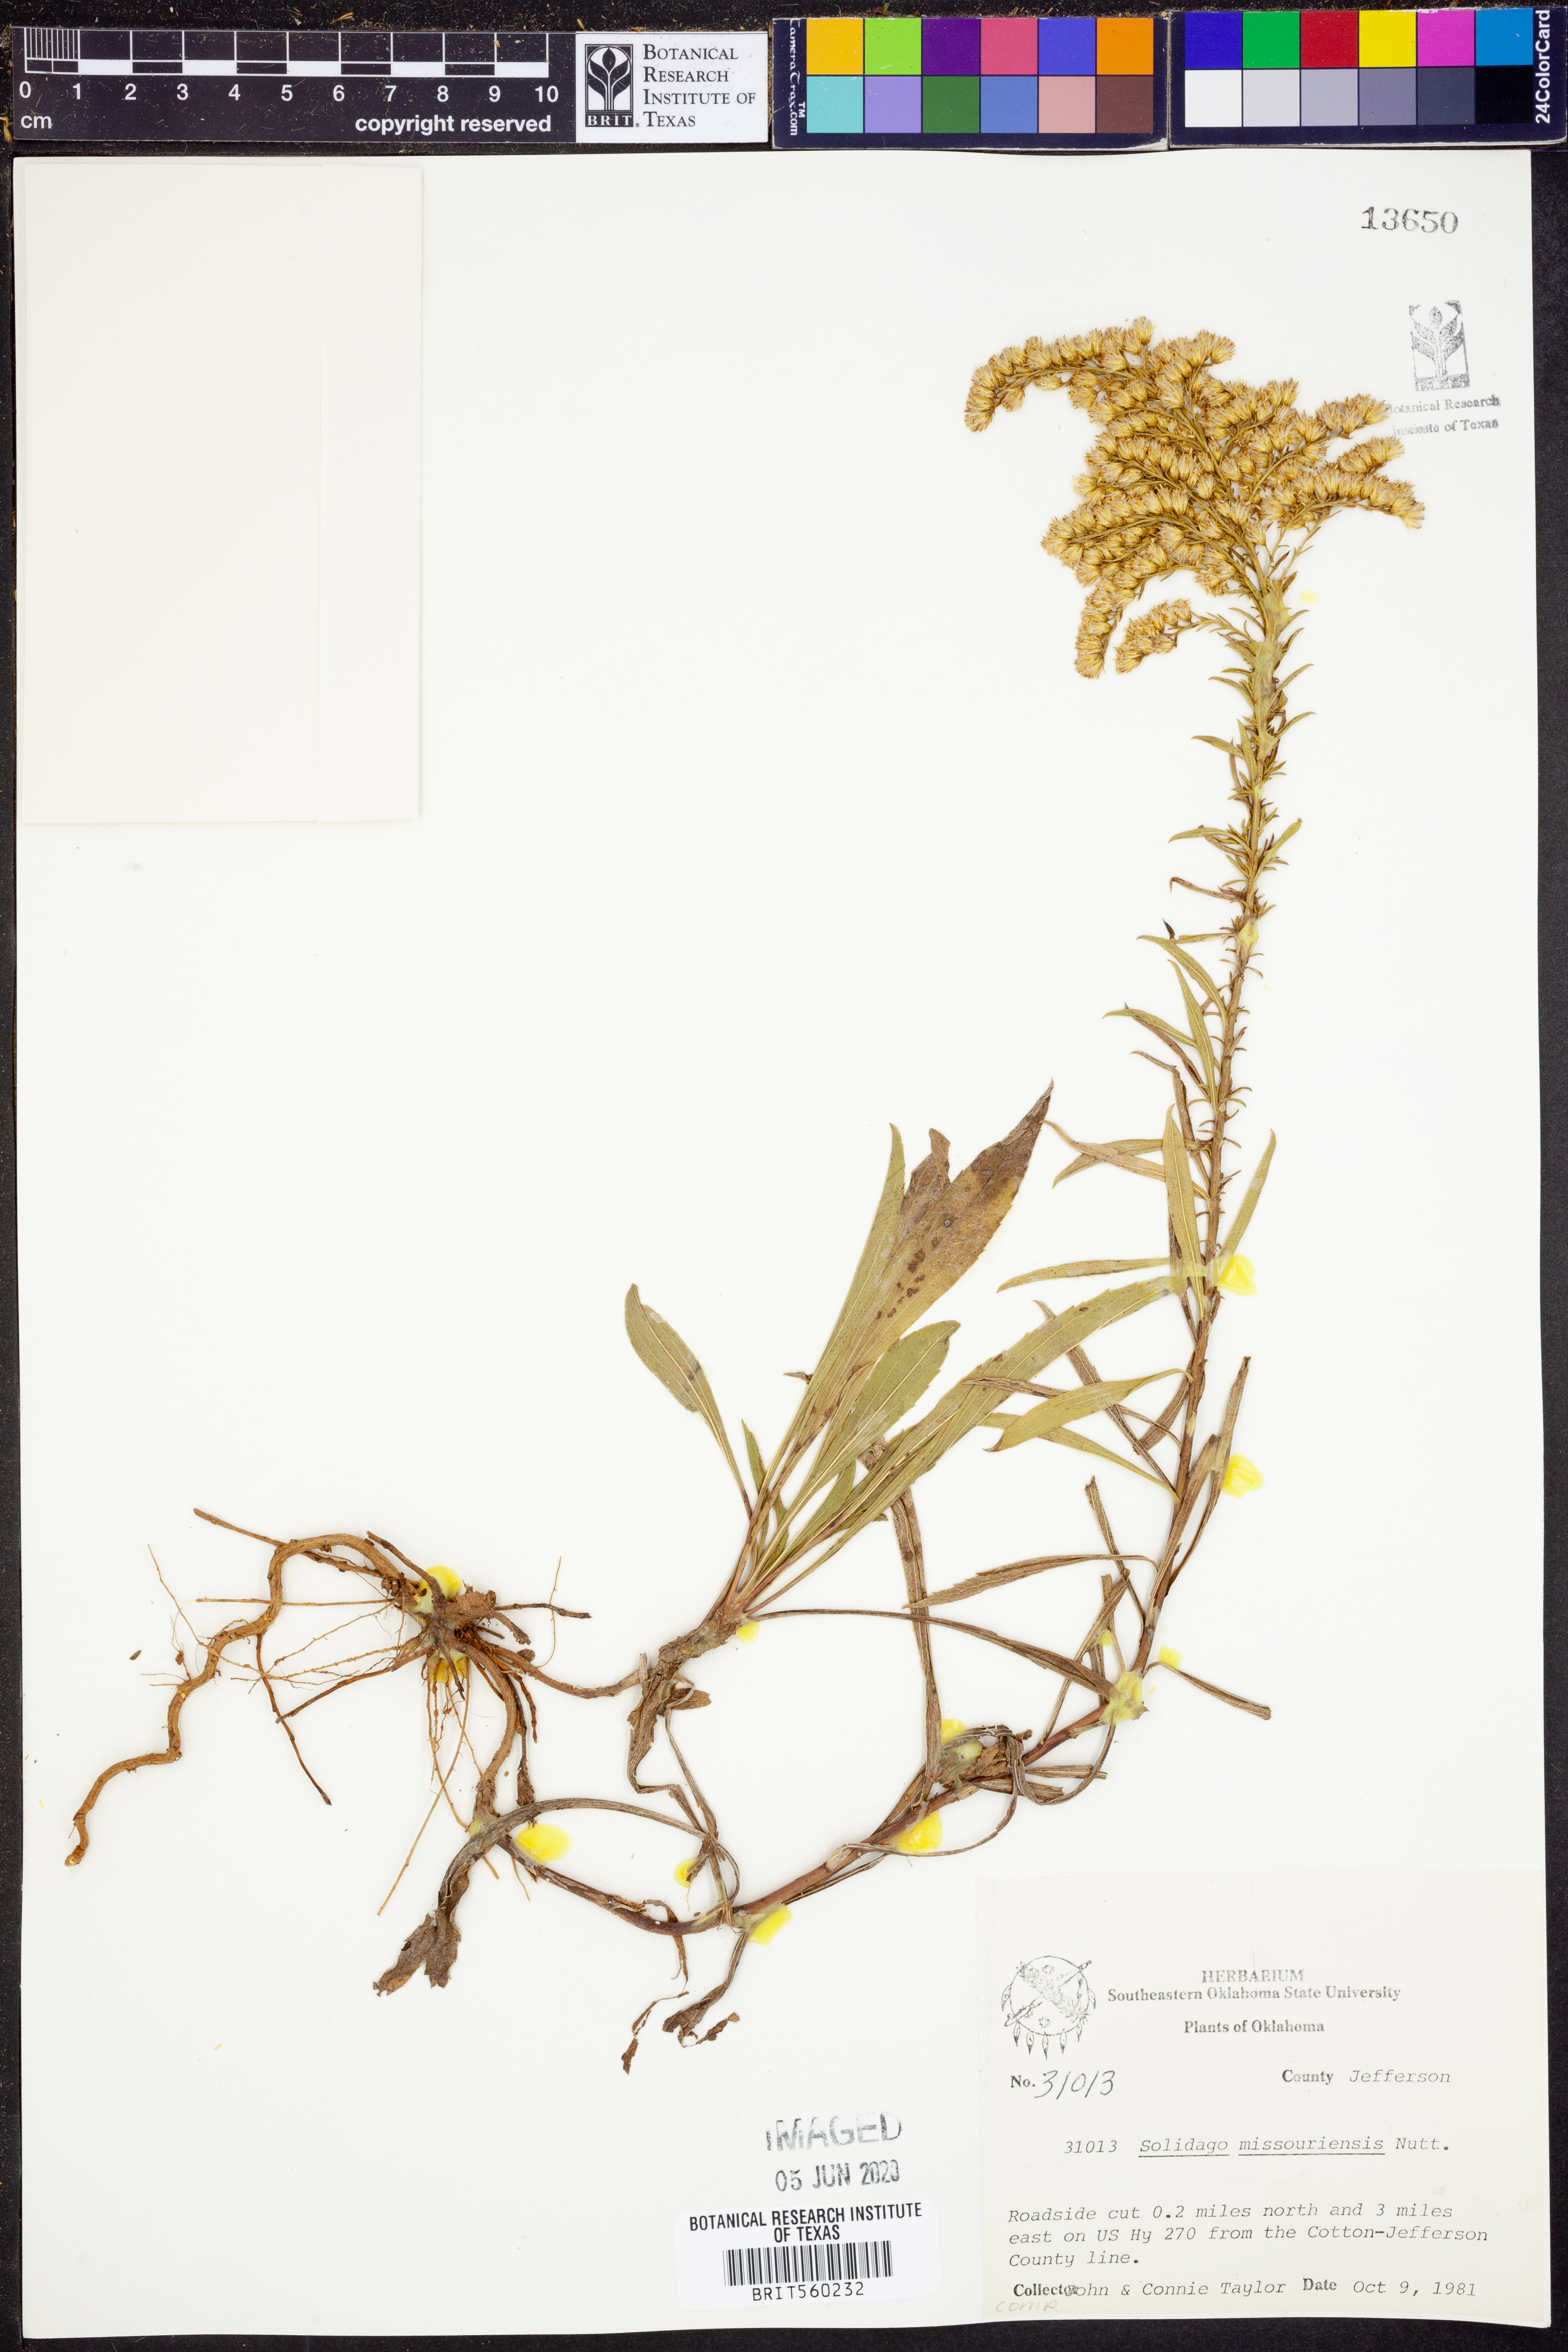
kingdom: Plantae
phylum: Tracheophyta
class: Magnoliopsida
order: Asterales
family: Asteraceae
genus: Solidago
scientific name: Solidago missouriensis
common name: Prairie goldenrod
